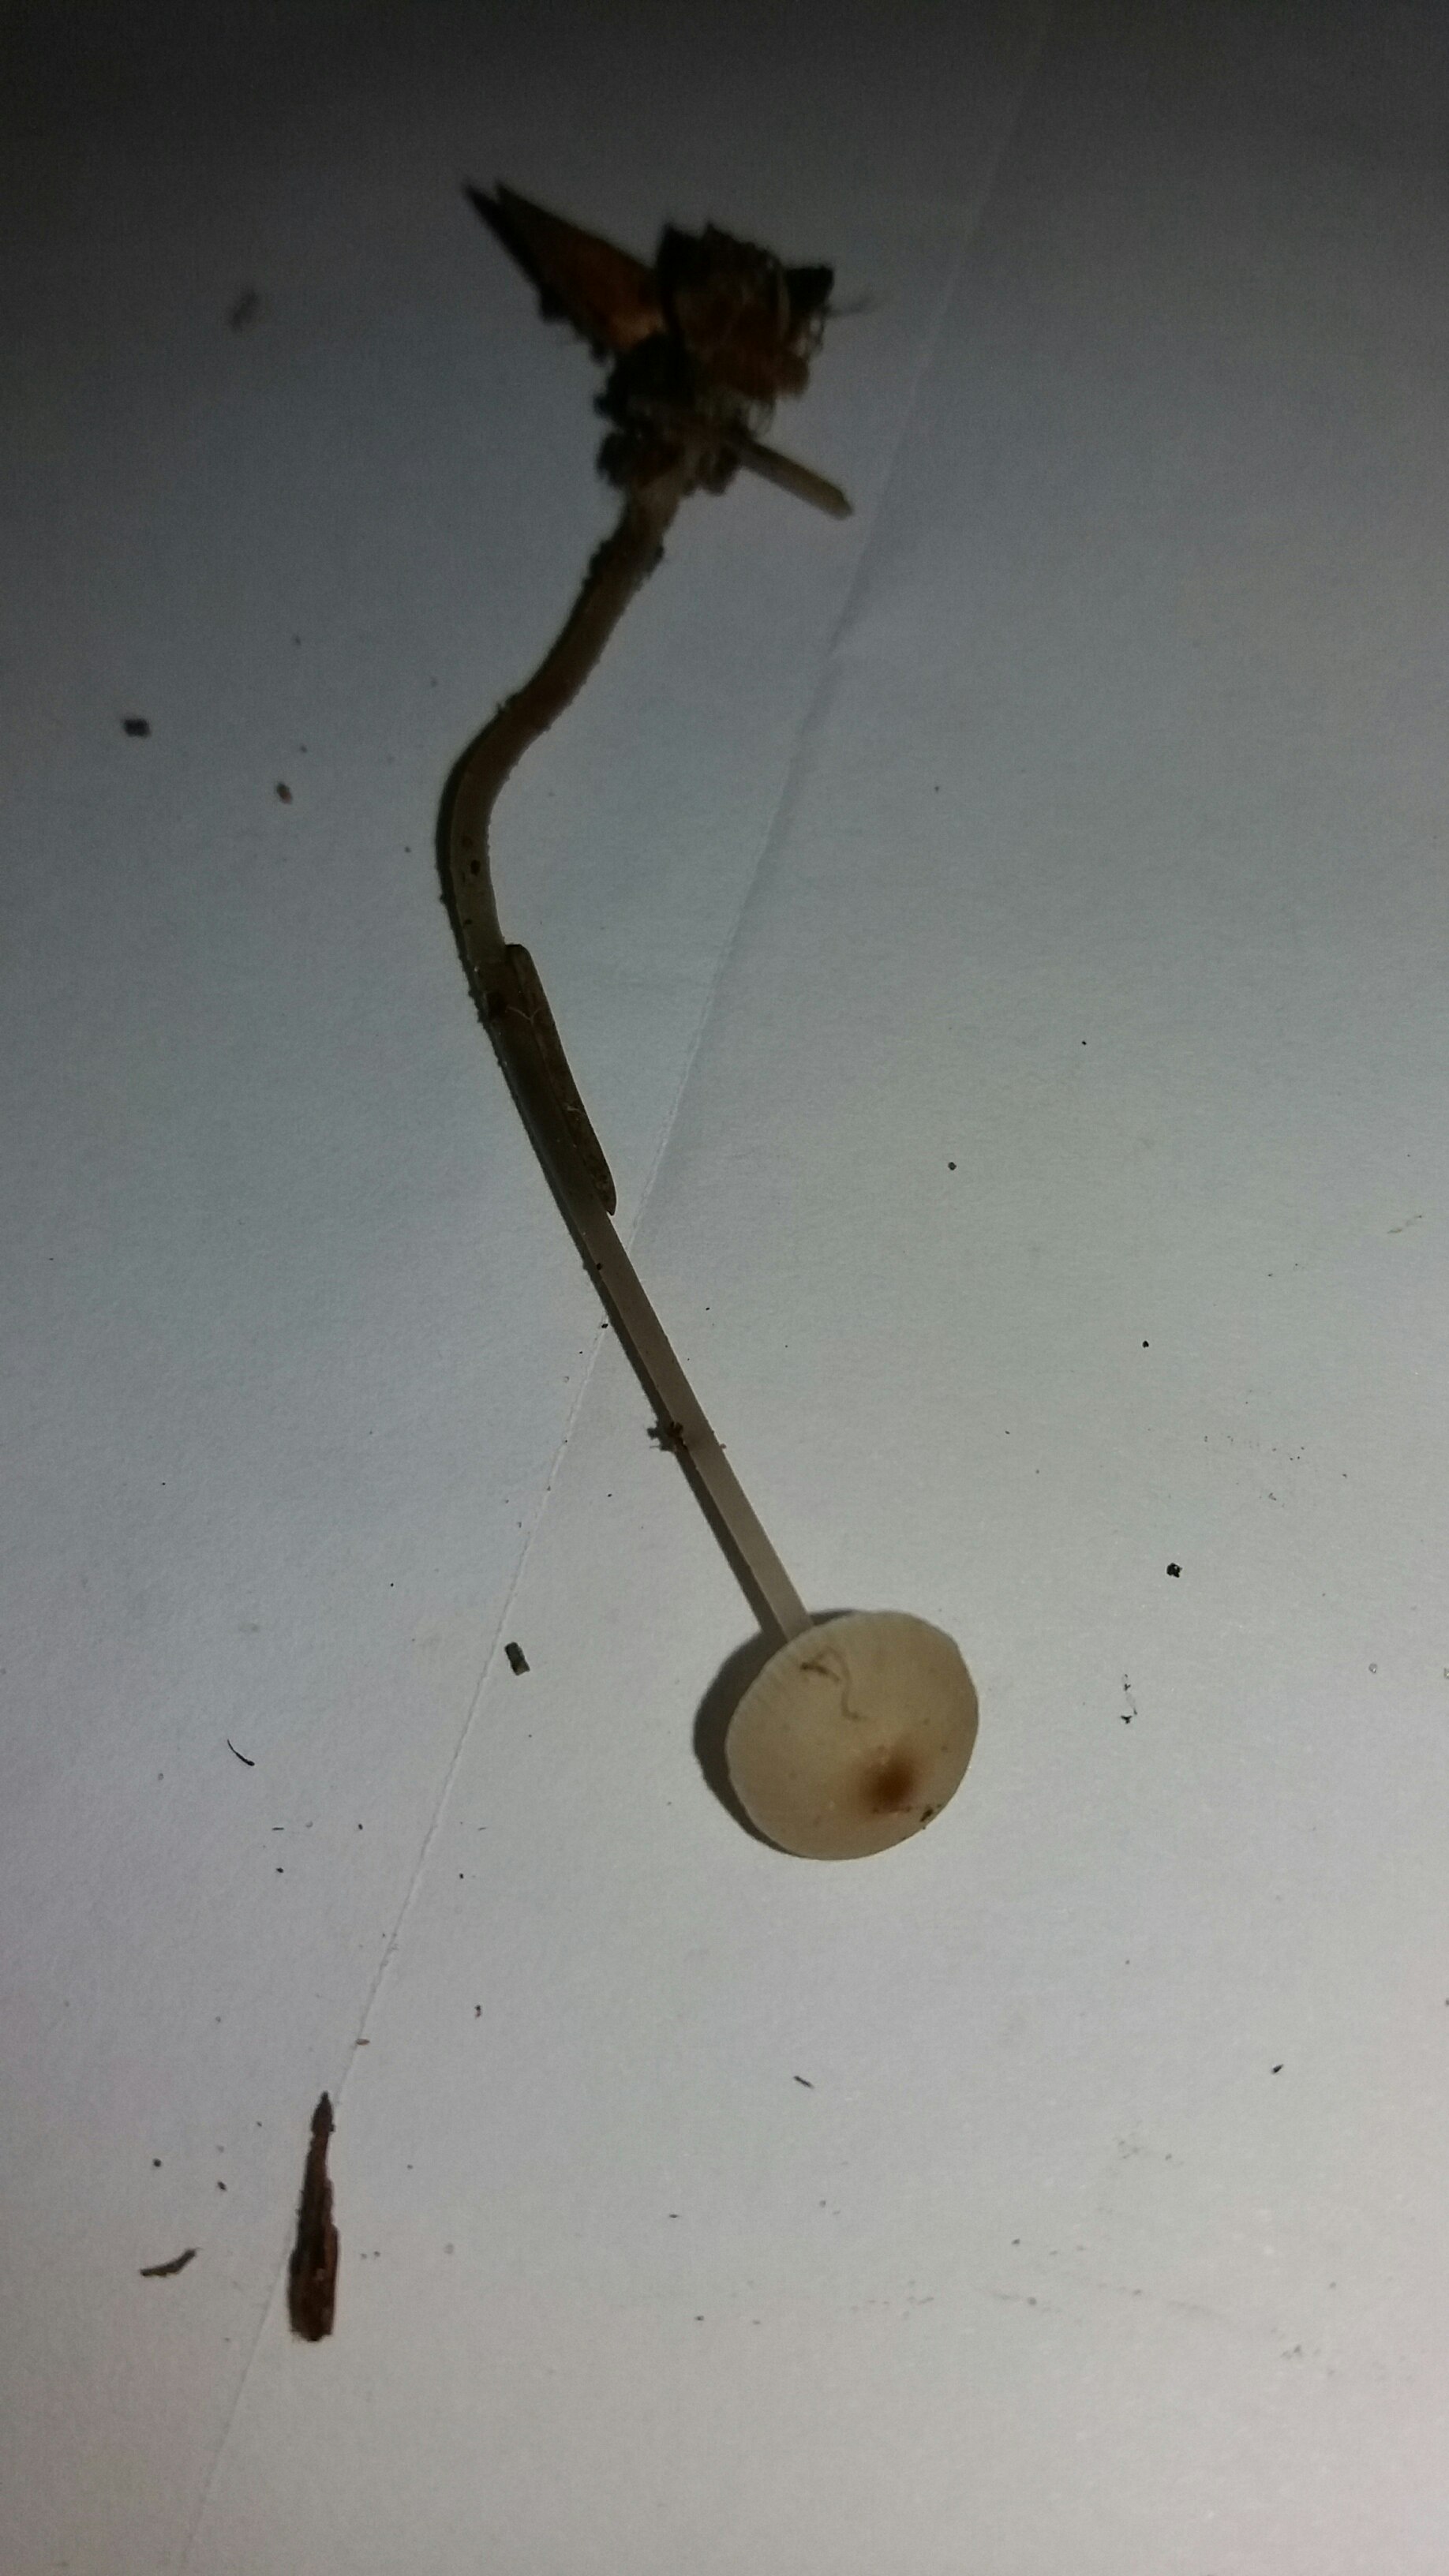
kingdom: Fungi
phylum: Basidiomycota
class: Agaricomycetes
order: Agaricales
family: Mycenaceae
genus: Mycena
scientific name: Mycena vitilis
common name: blankstokket huesvamp
